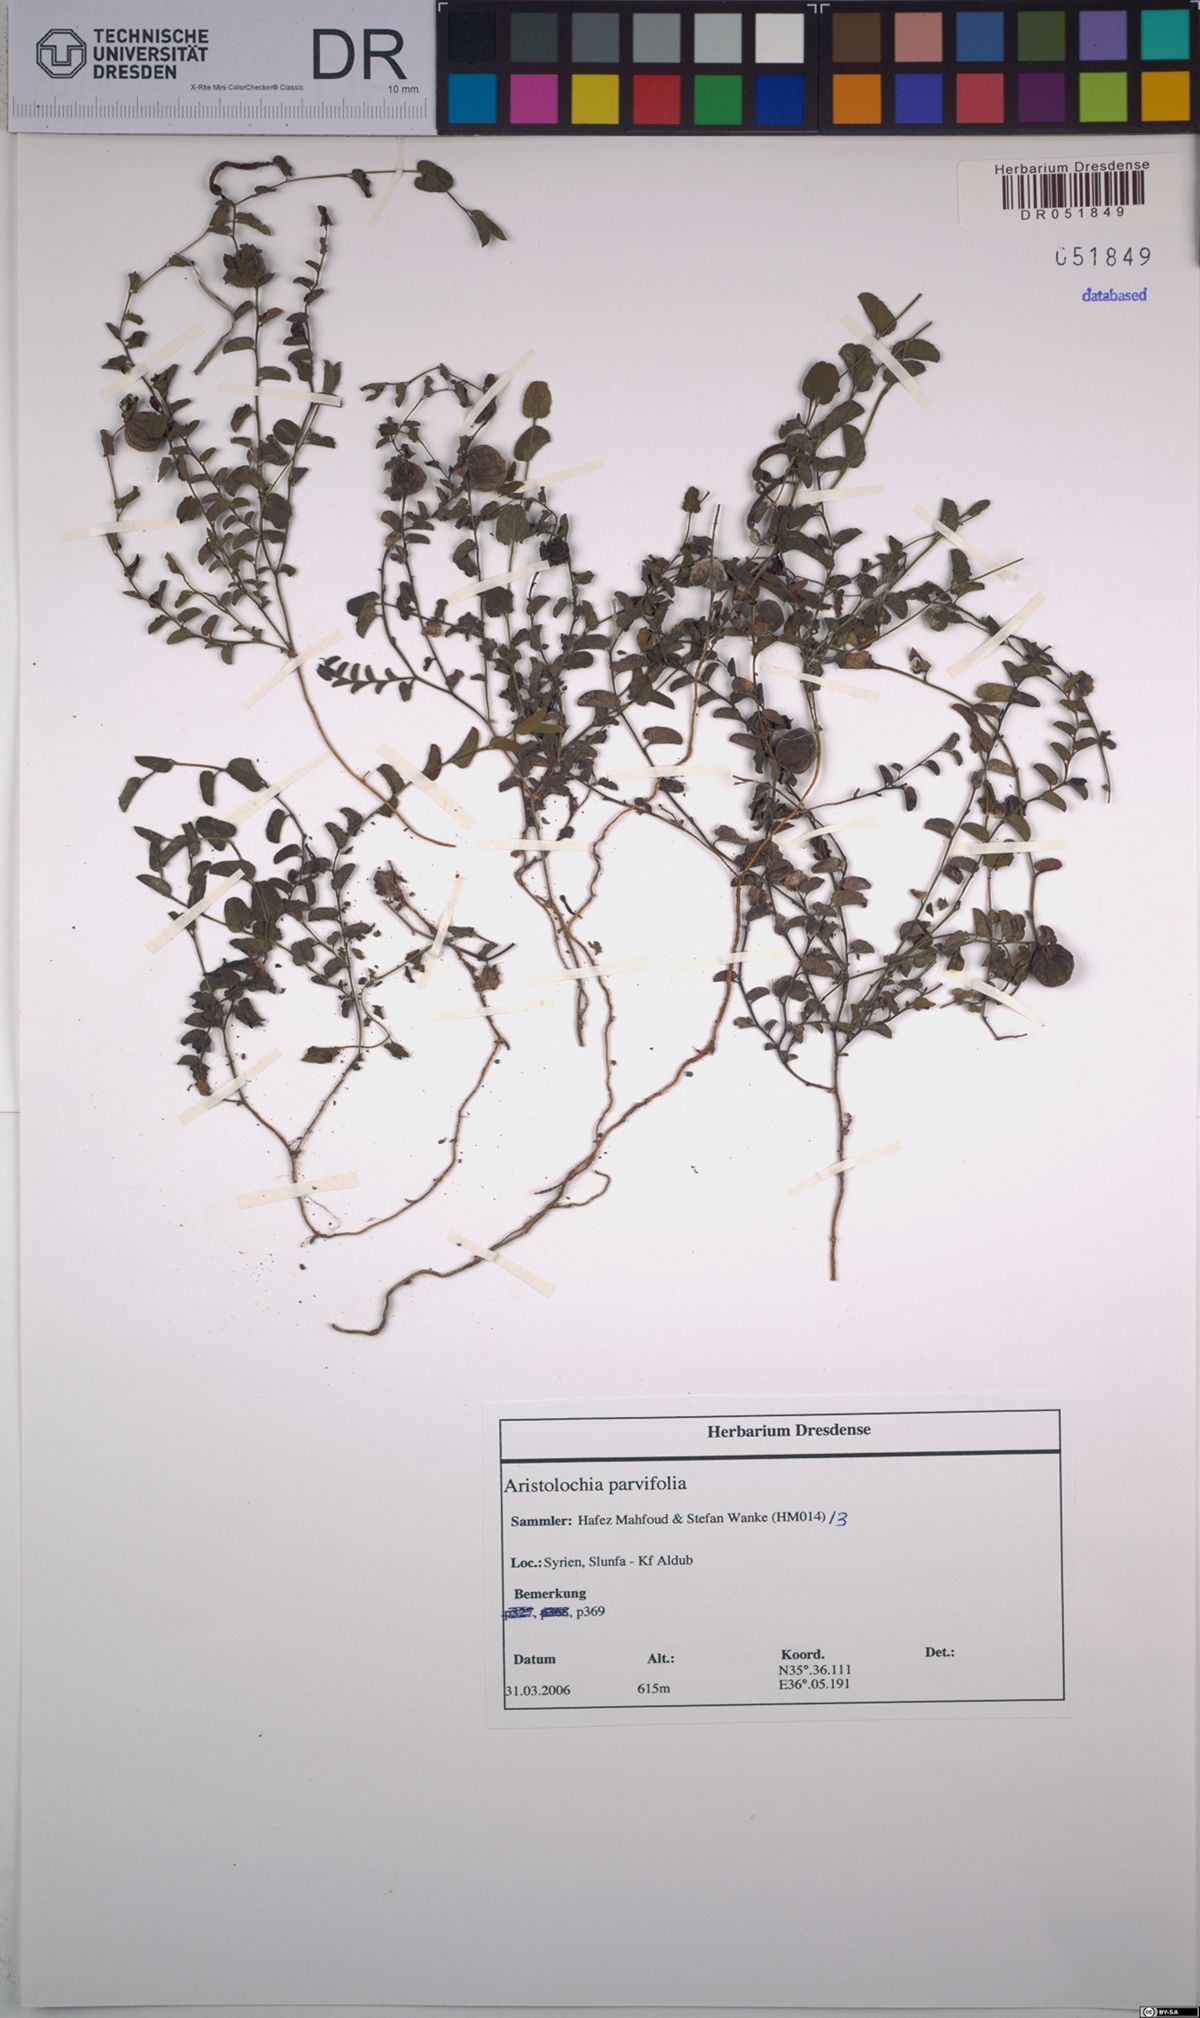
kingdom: Plantae
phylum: Tracheophyta
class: Magnoliopsida
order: Piperales
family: Aristolochiaceae
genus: Aristolochia
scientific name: Aristolochia parvifolia
